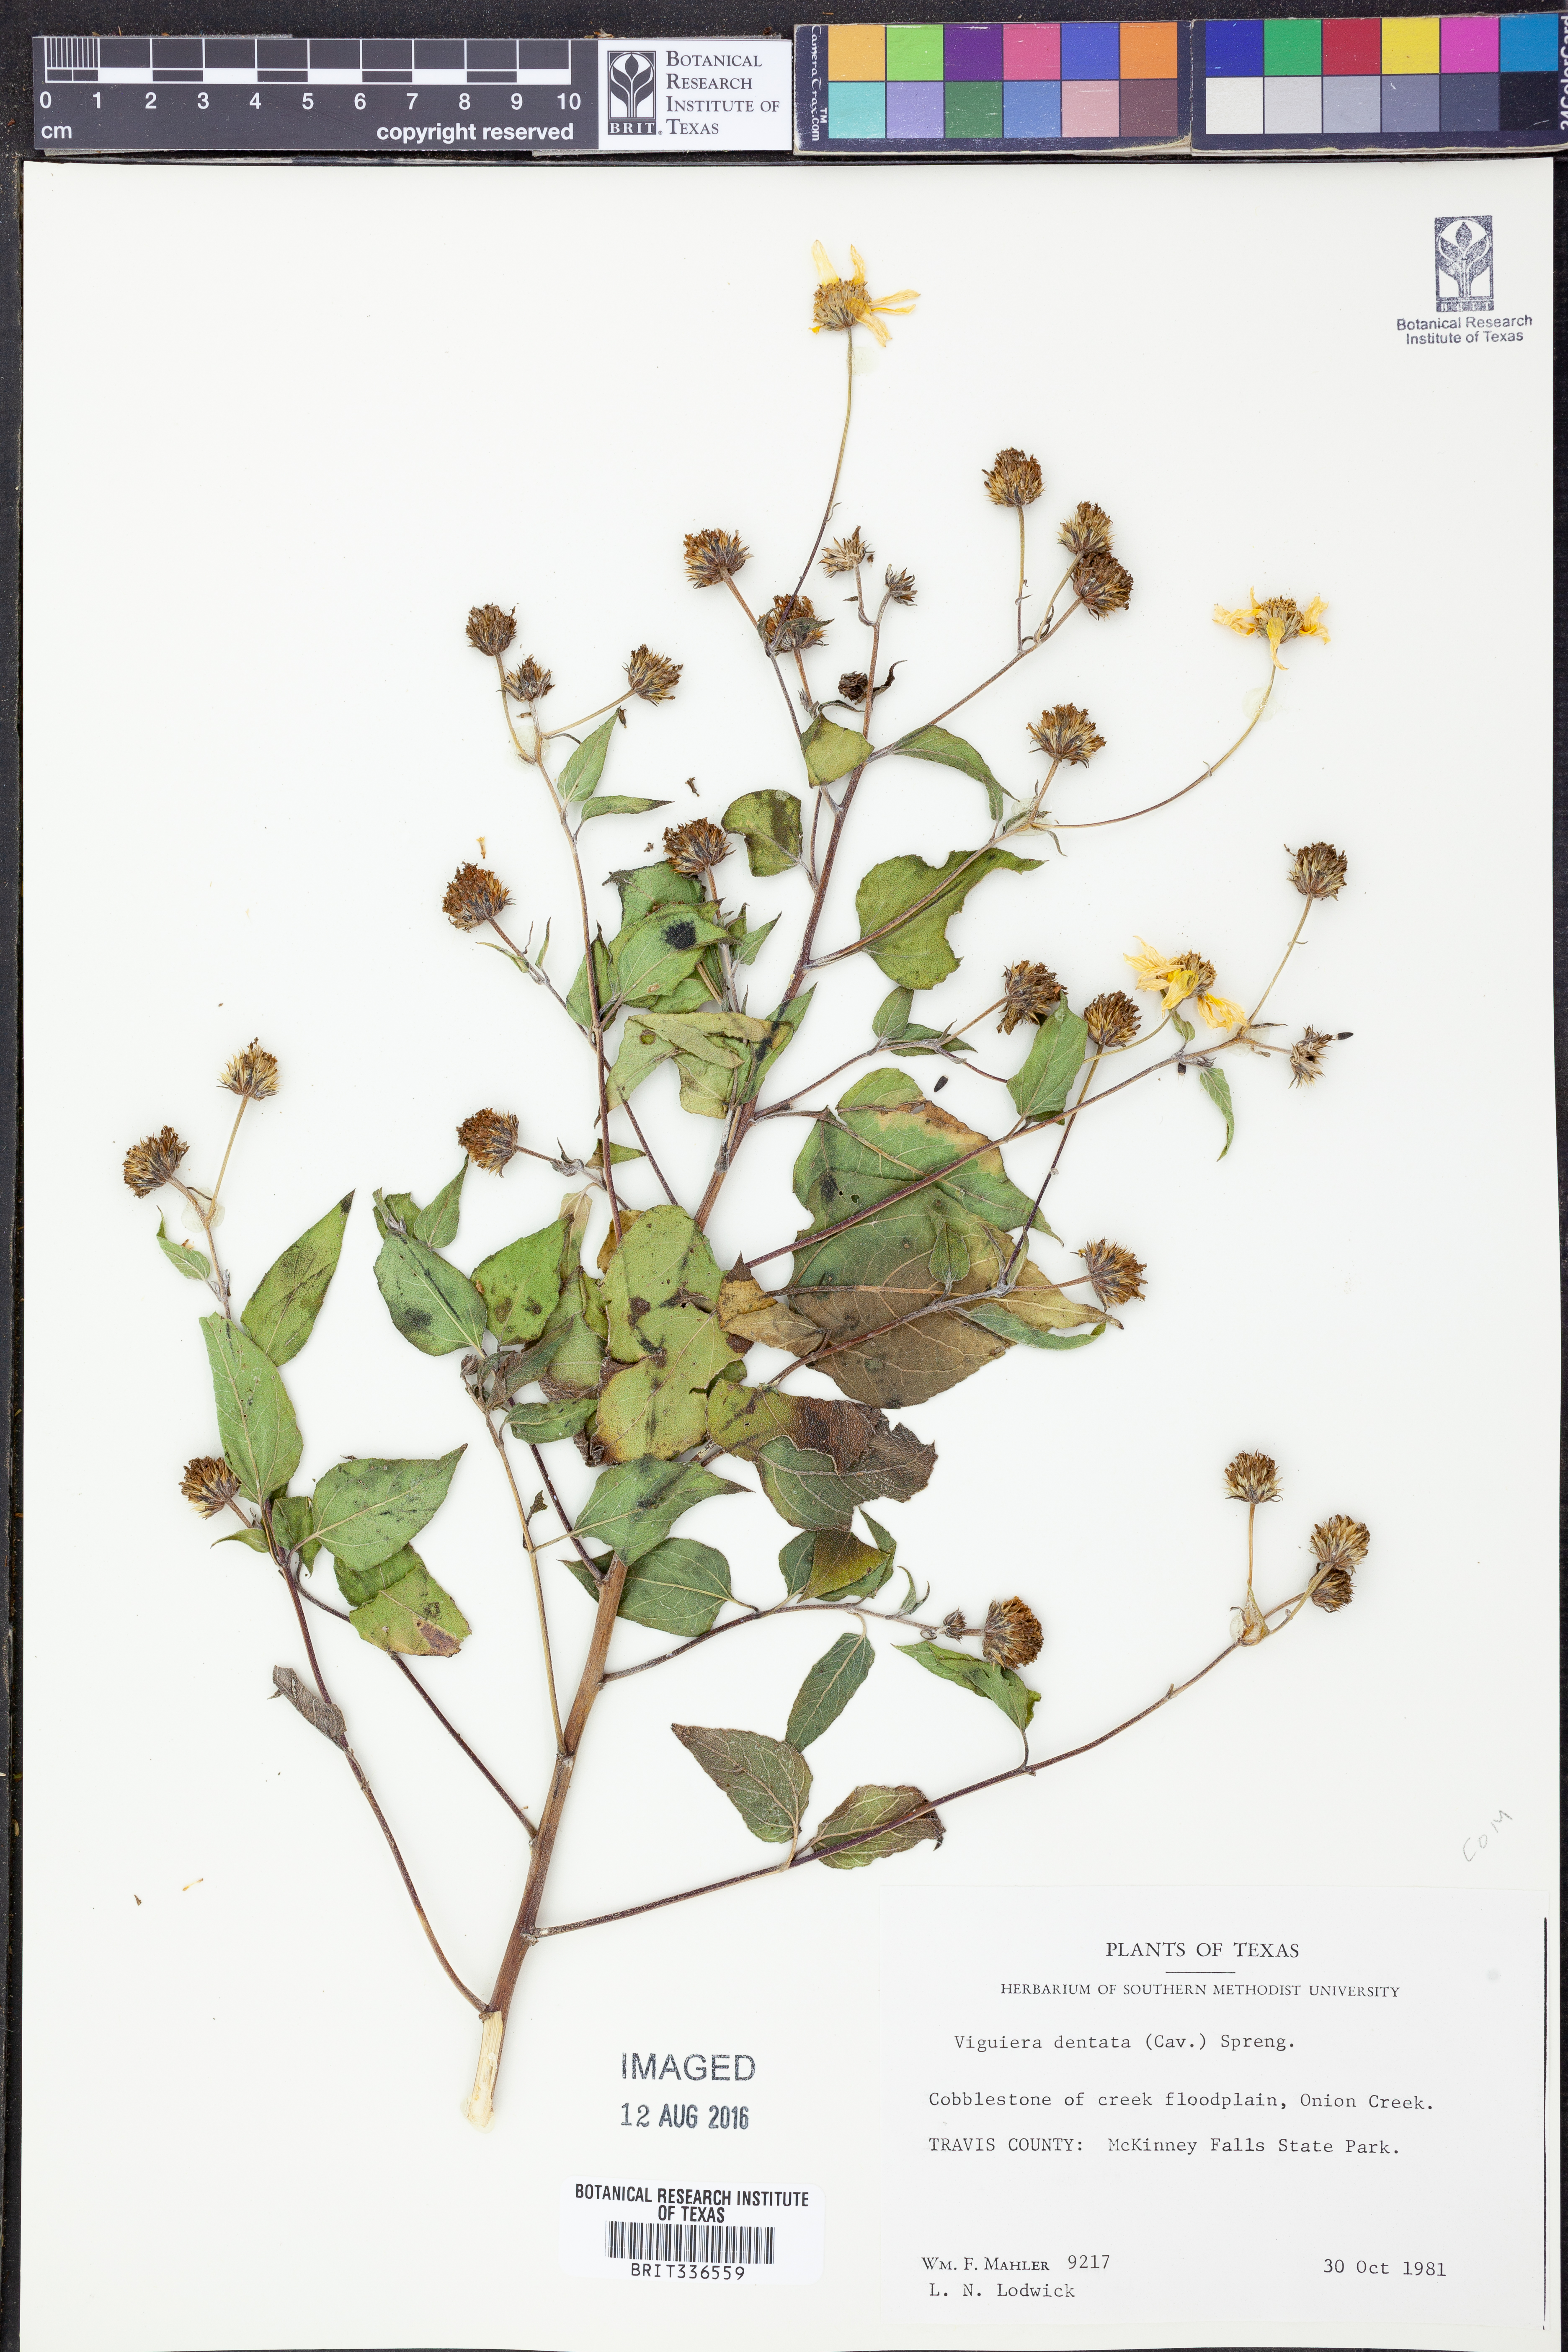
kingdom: Plantae
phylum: Tracheophyta
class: Magnoliopsida
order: Asterales
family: Asteraceae
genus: Viguiera
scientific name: Viguiera dentata
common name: Toothleaf
